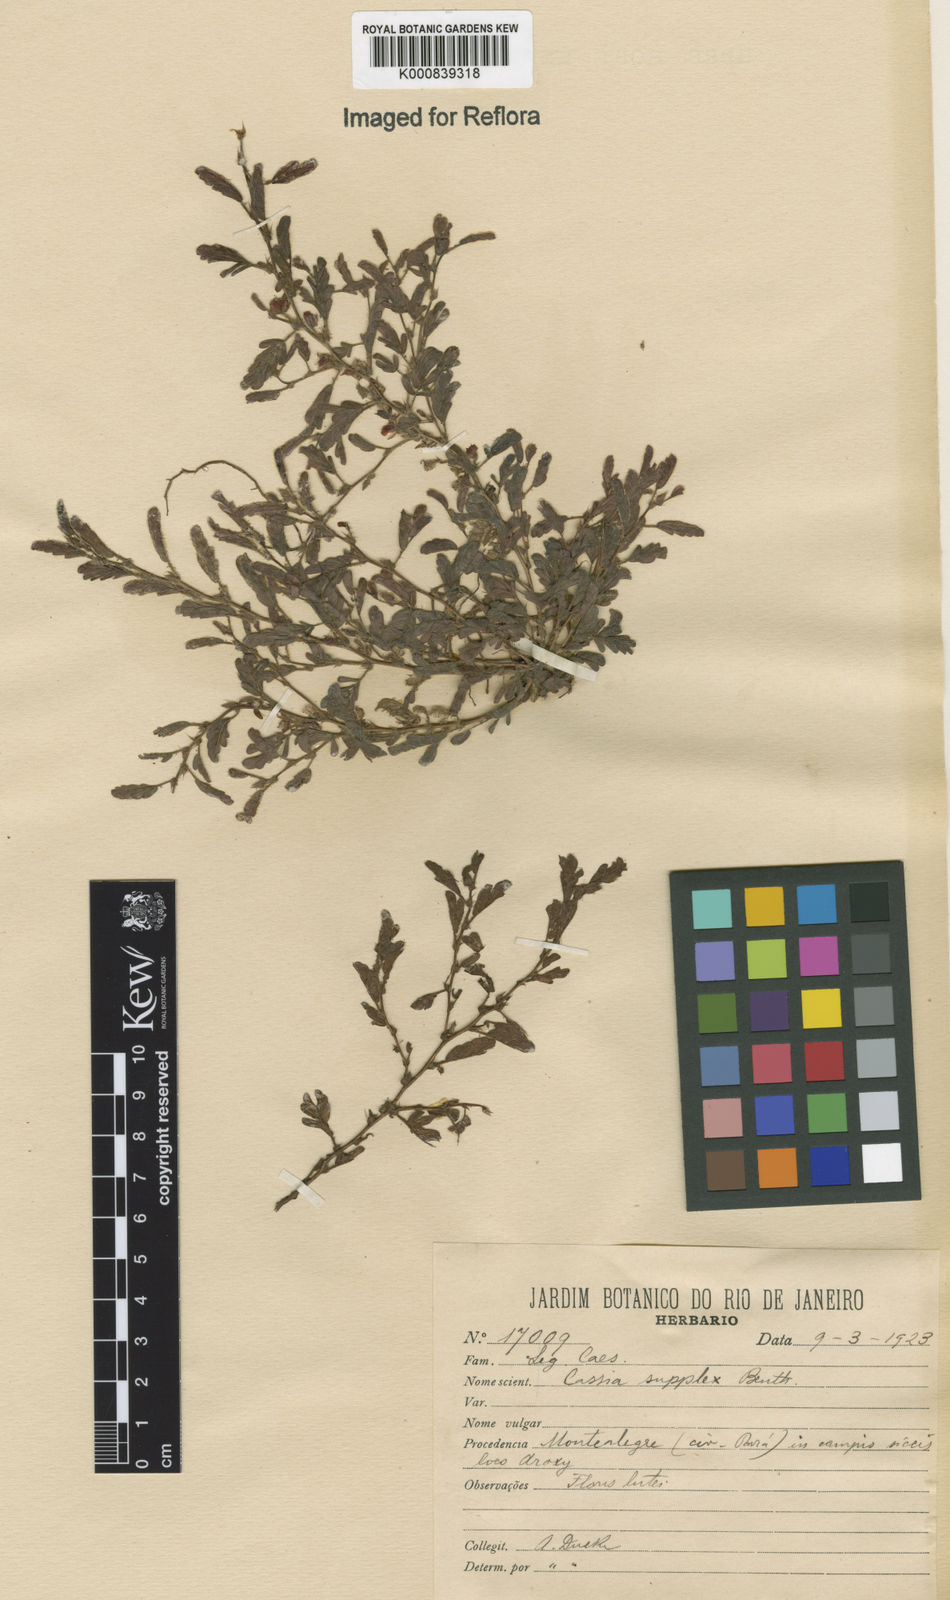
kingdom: Plantae
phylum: Tracheophyta
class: Magnoliopsida
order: Fabales
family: Fabaceae
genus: Chamaecrista
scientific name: Chamaecrista supplex
